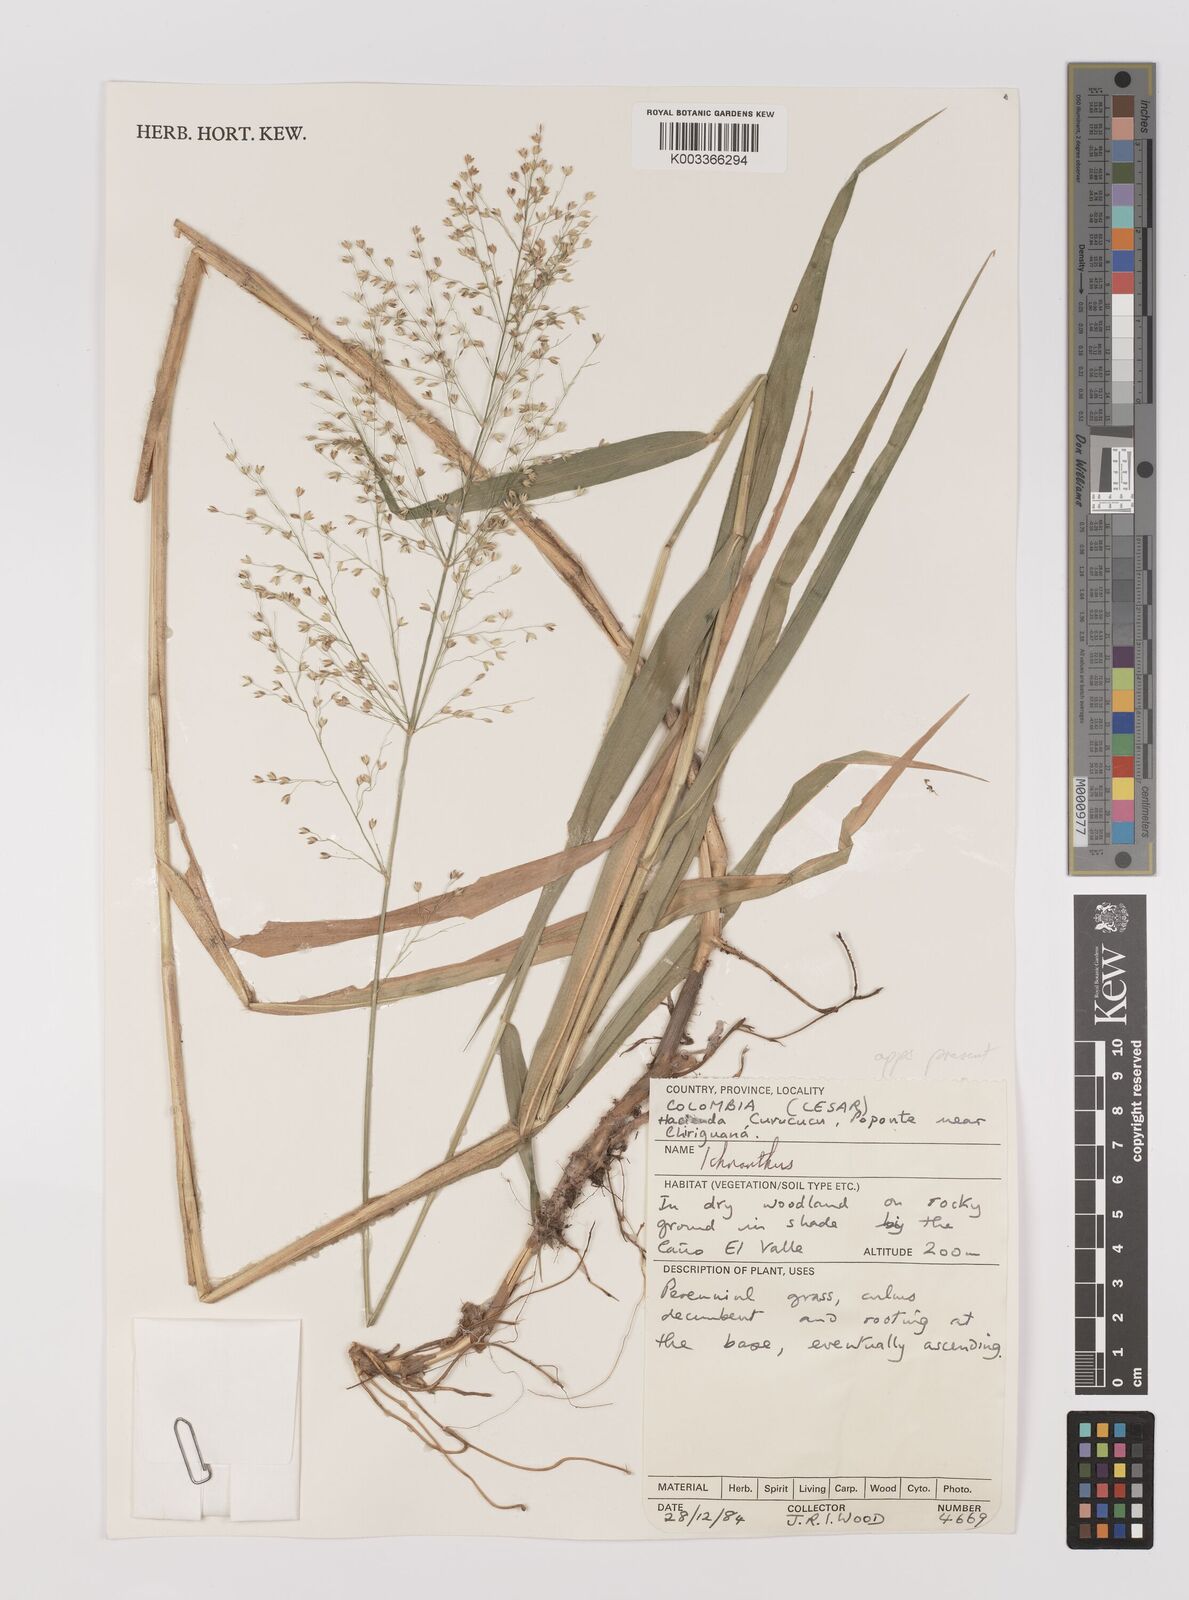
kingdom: Plantae
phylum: Tracheophyta
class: Liliopsida
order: Poales
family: Poaceae
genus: Ichnanthus
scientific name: Ichnanthus calvescens
